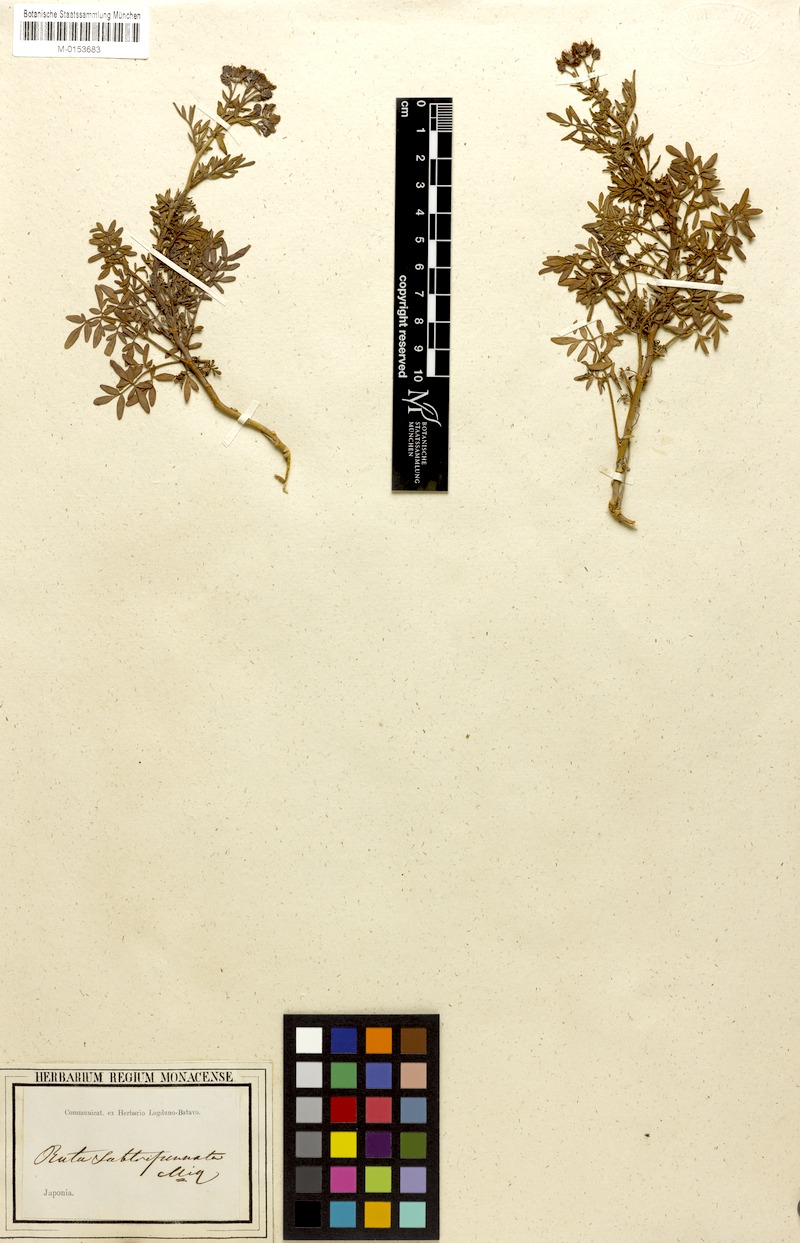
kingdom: Plantae
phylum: Tracheophyta
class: Magnoliopsida
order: Sapindales
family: Rutaceae
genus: Ruta
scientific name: Ruta graveolens
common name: Common rue
